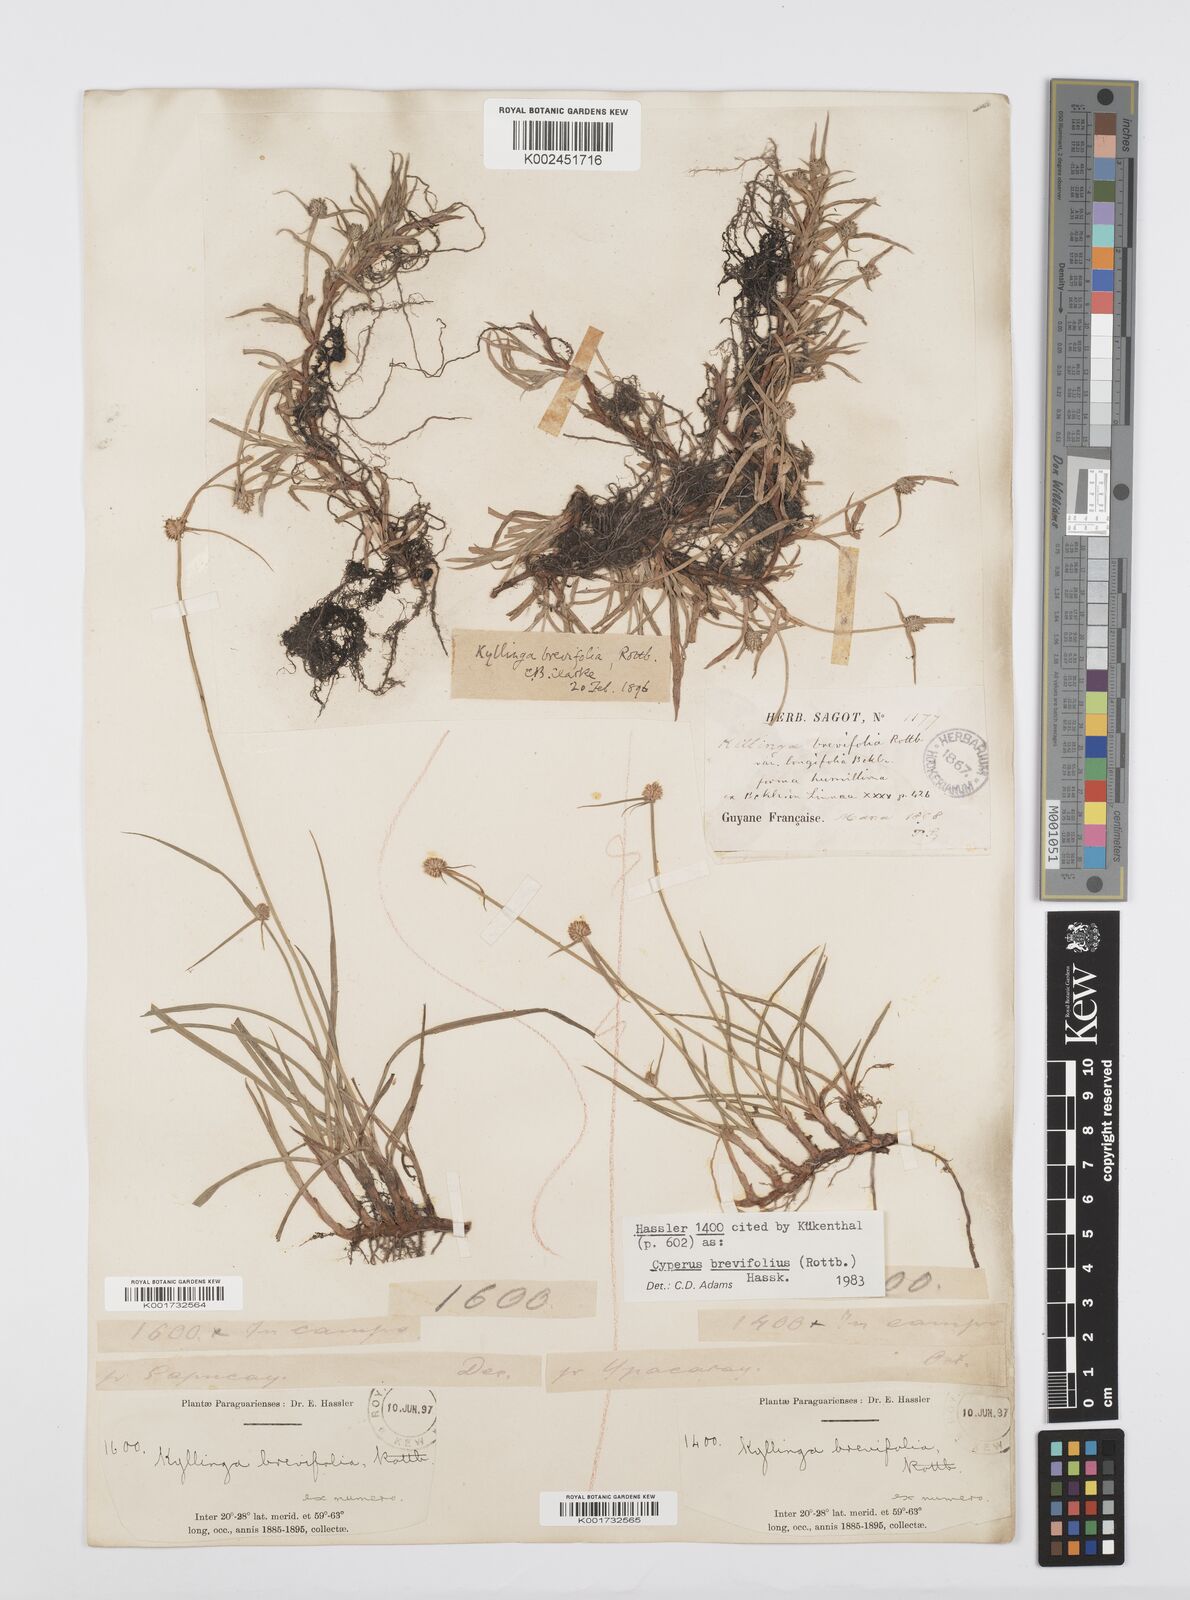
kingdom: Plantae
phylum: Tracheophyta
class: Liliopsida
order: Poales
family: Cyperaceae
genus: Cyperus
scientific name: Cyperus brevifolius
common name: Globe kyllinga
